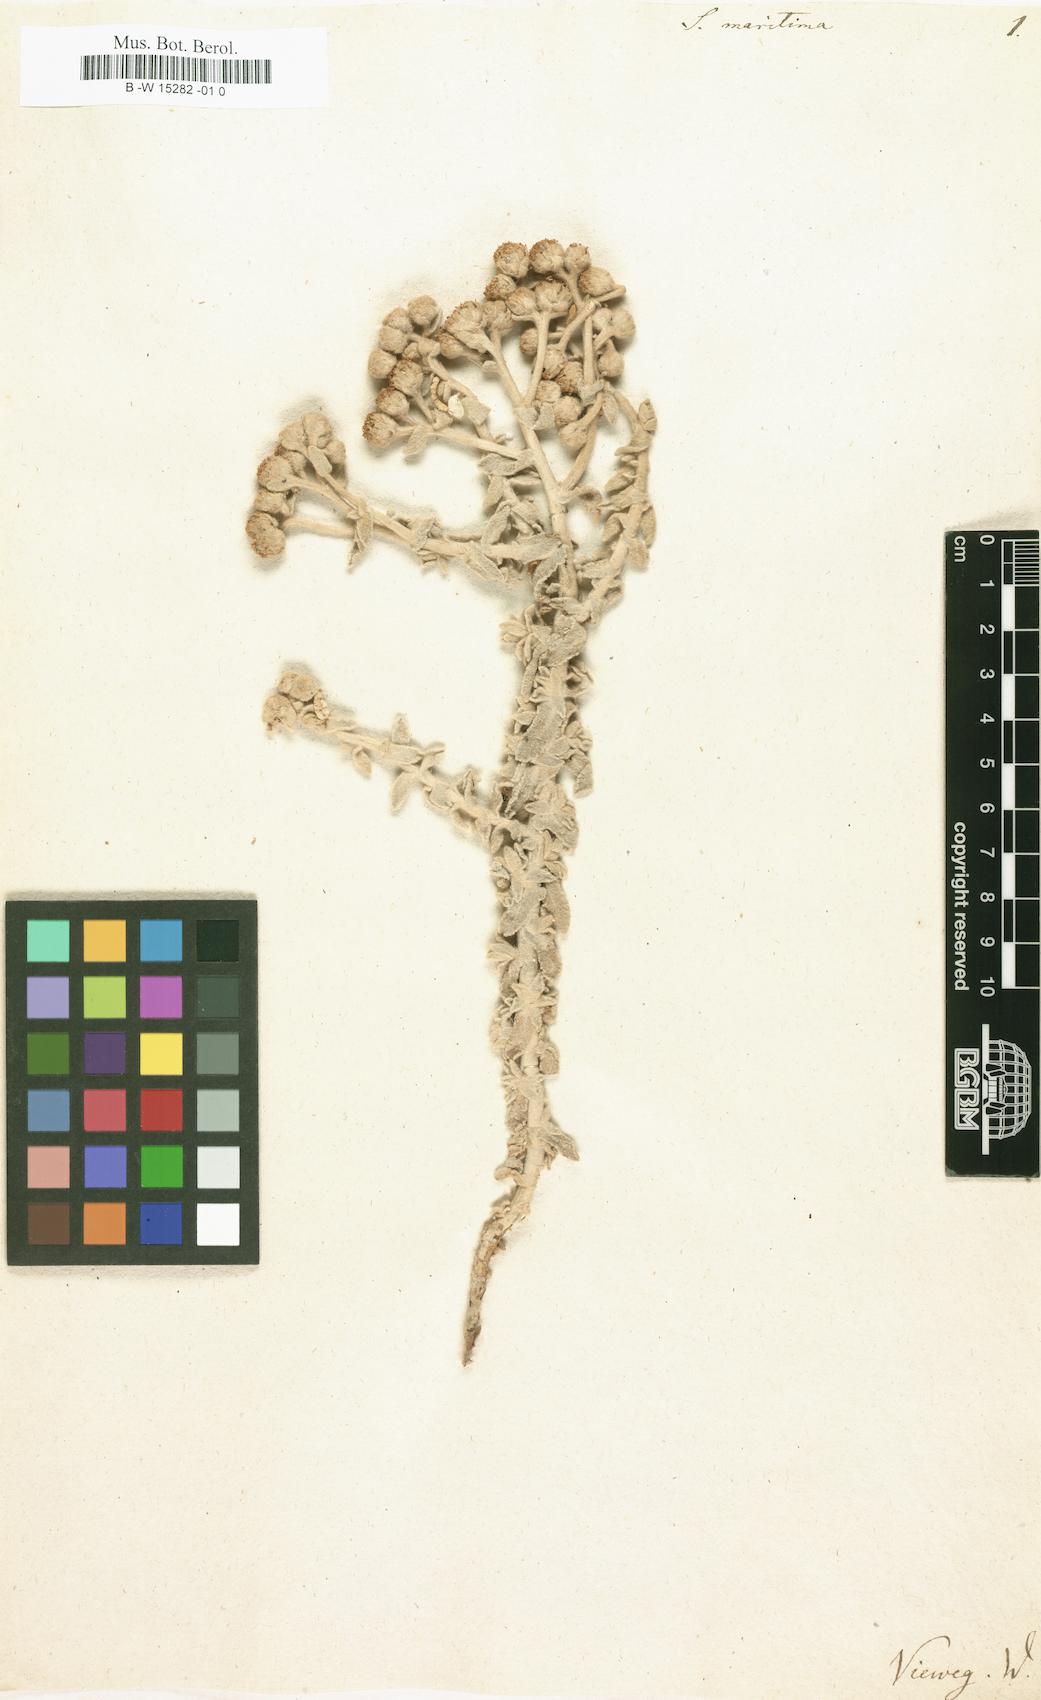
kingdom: Plantae
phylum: Tracheophyta
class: Magnoliopsida
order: Asterales
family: Asteraceae
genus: Achillea
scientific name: Achillea maritima
